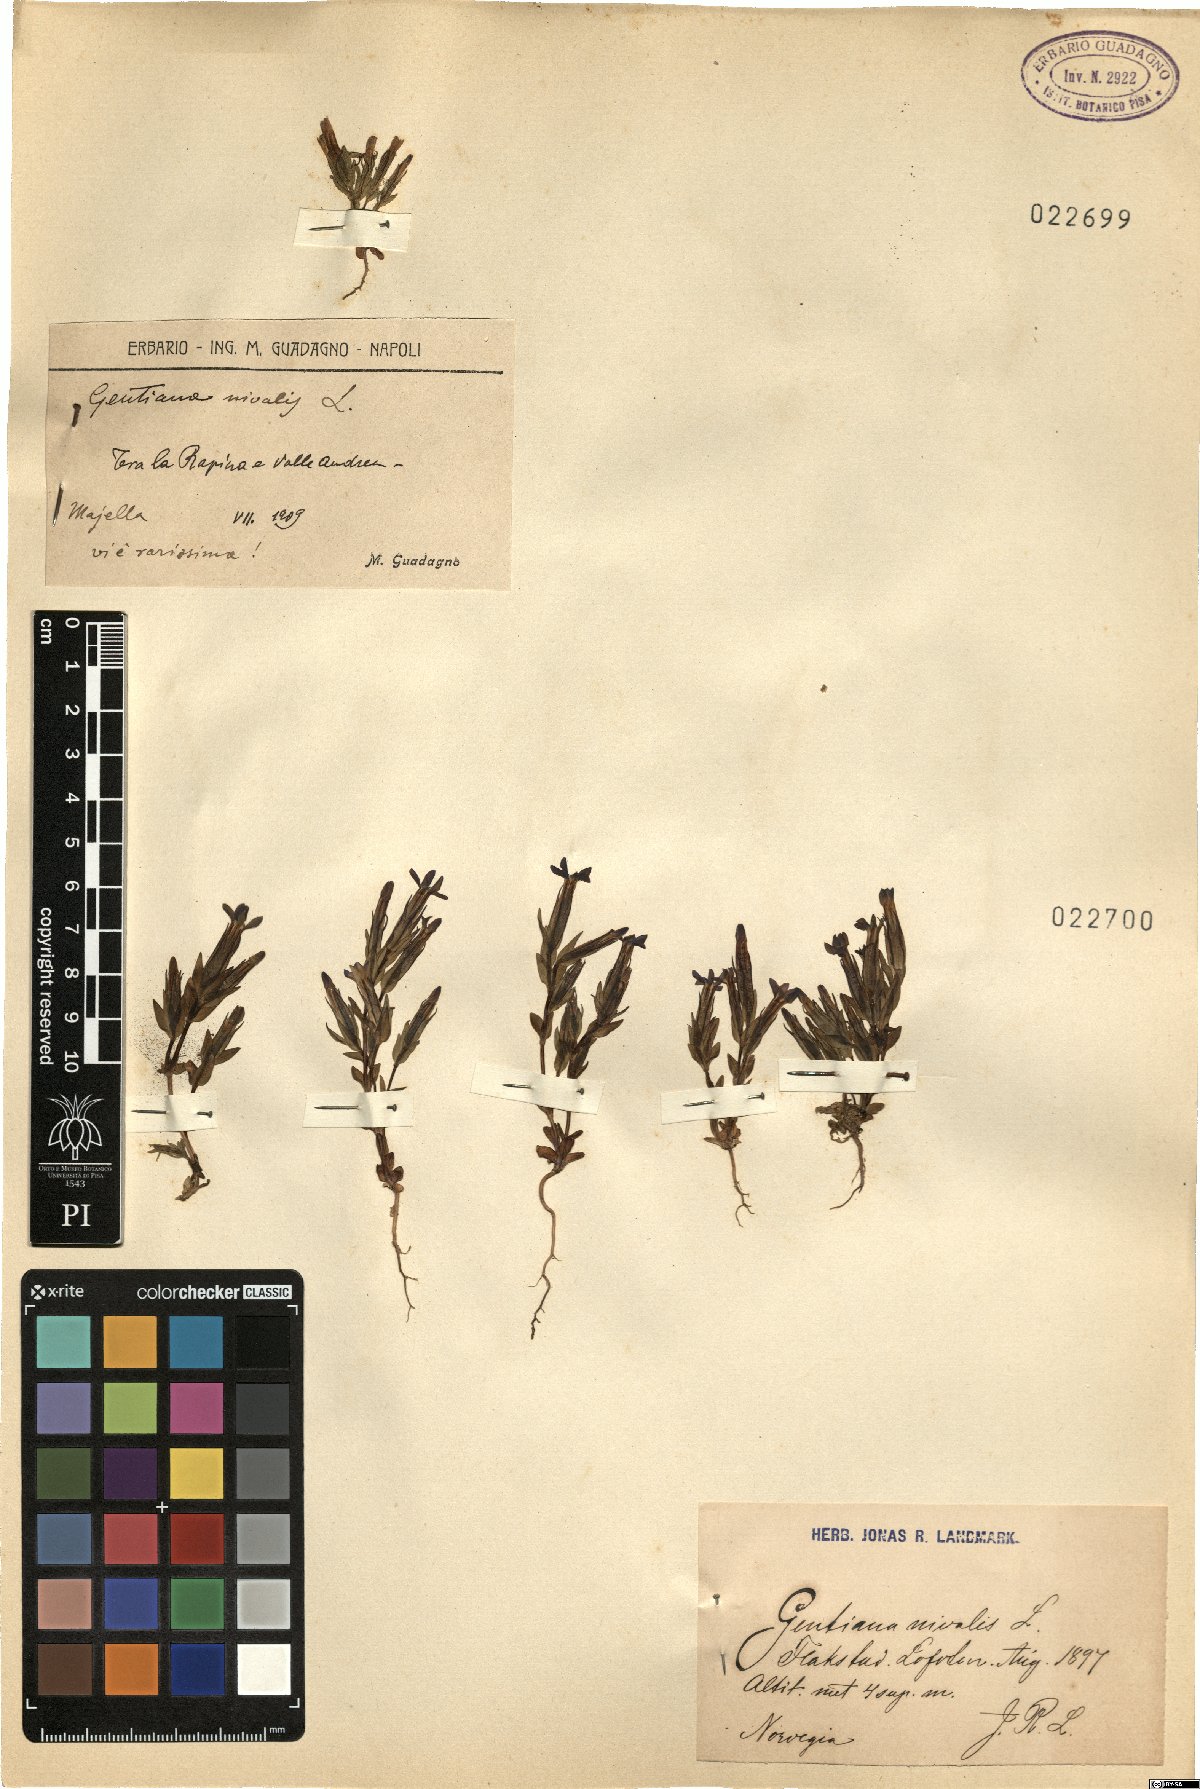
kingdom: Plantae
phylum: Tracheophyta
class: Magnoliopsida
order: Gentianales
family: Gentianaceae
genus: Gentiana
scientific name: Gentiana nivalis
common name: Alpine gentian
